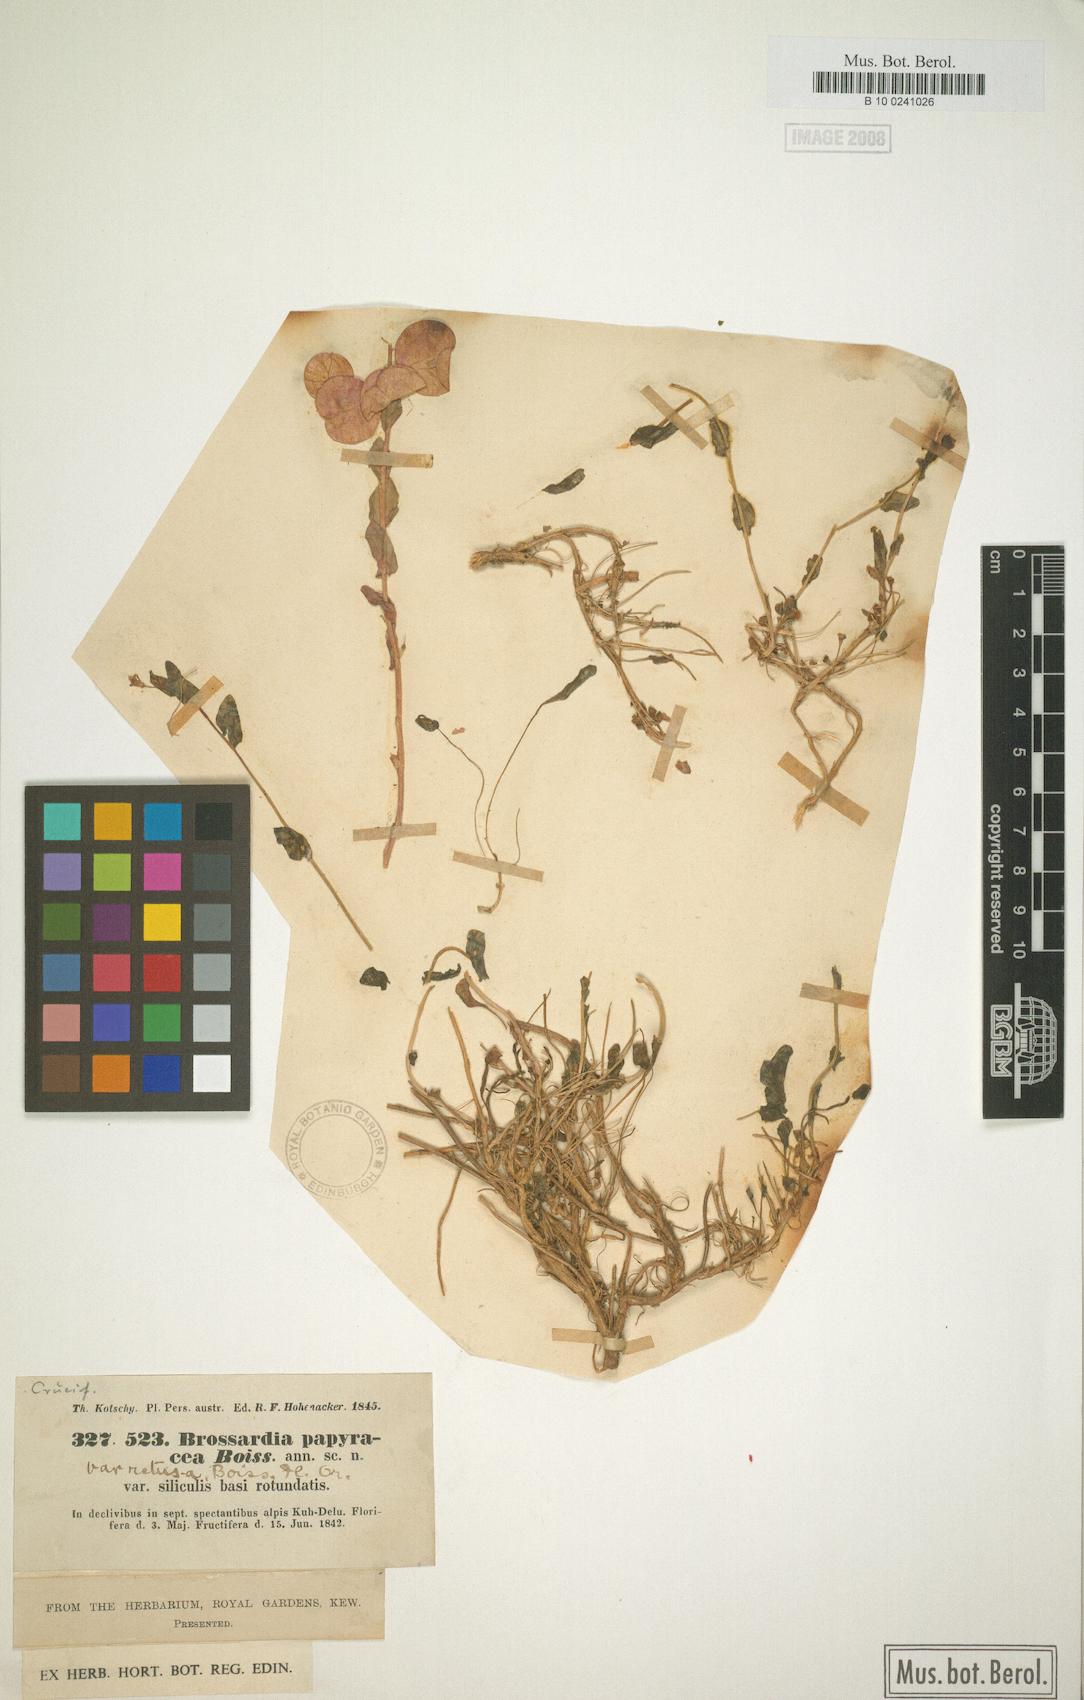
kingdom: Plantae
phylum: Tracheophyta
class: Magnoliopsida
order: Brassicales
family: Brassicaceae
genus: Noccaea
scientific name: Noccaea papyracea
